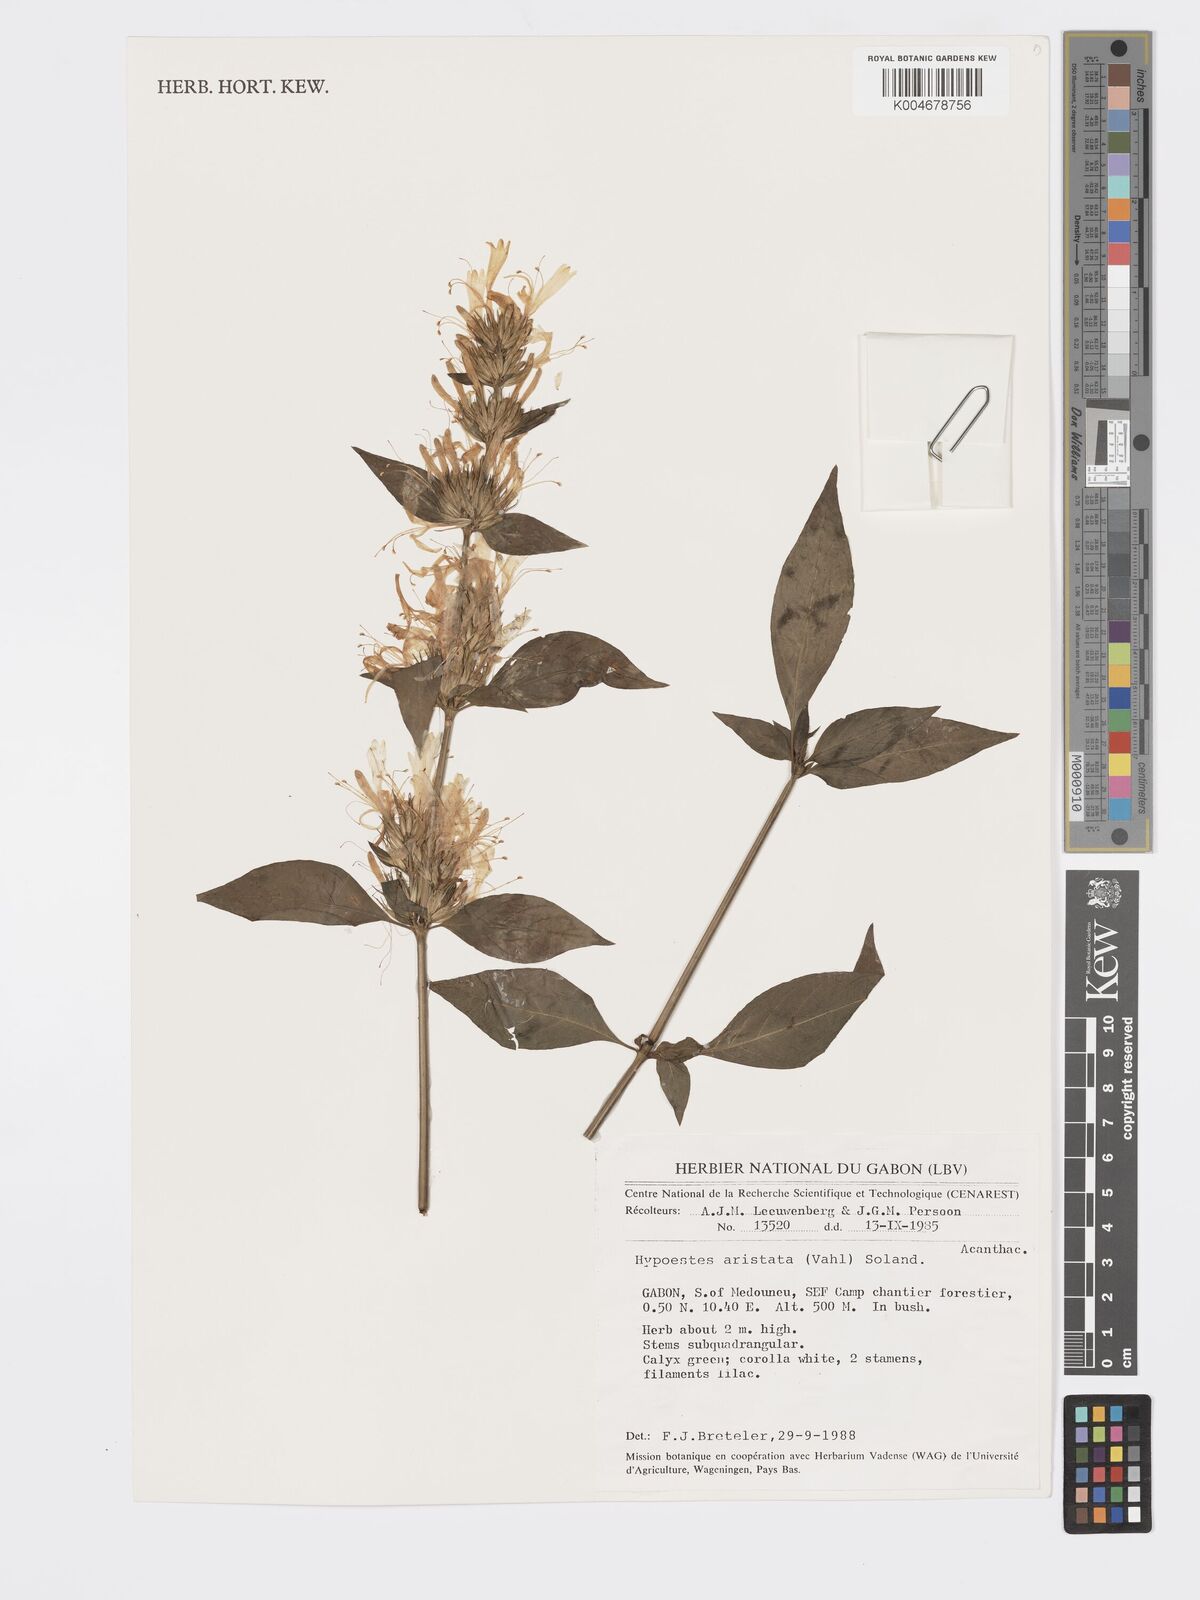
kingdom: Plantae
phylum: Tracheophyta
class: Magnoliopsida
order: Lamiales
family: Acanthaceae
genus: Hypoestes
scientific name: Hypoestes aristata
